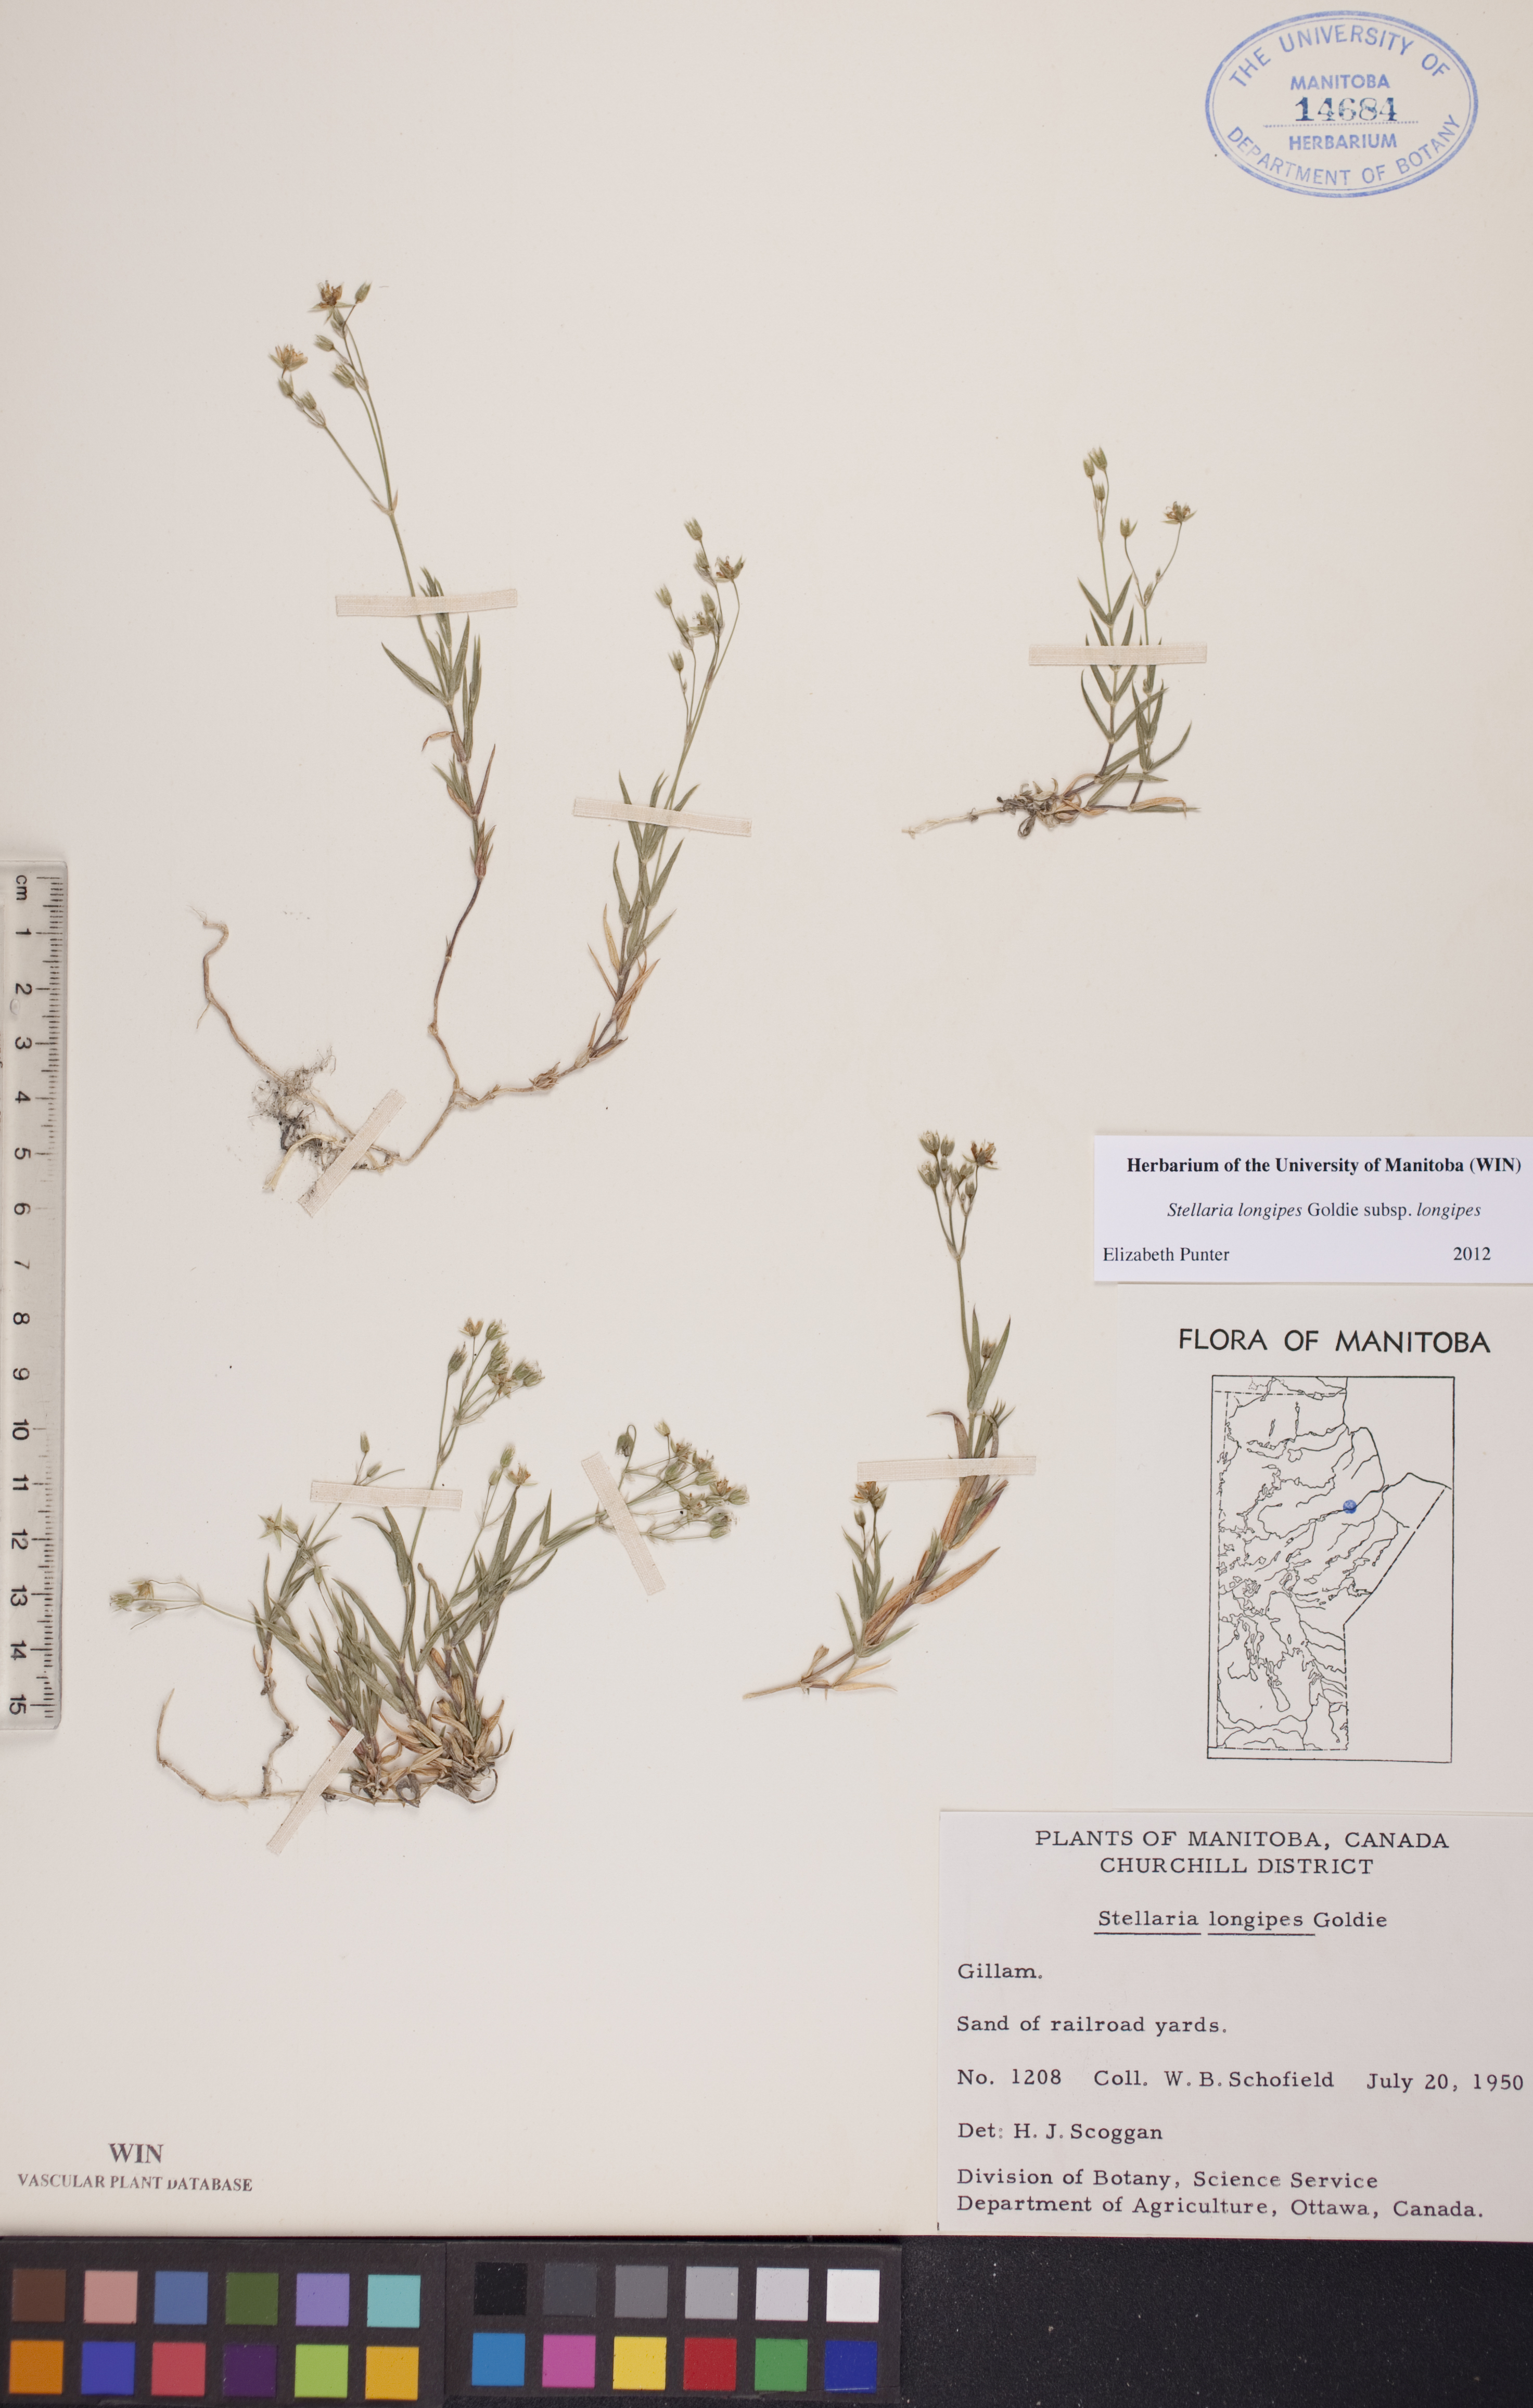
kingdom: Plantae
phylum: Tracheophyta
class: Magnoliopsida
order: Caryophyllales
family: Caryophyllaceae
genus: Stellaria
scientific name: Stellaria longipes
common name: Goldie's starwort
